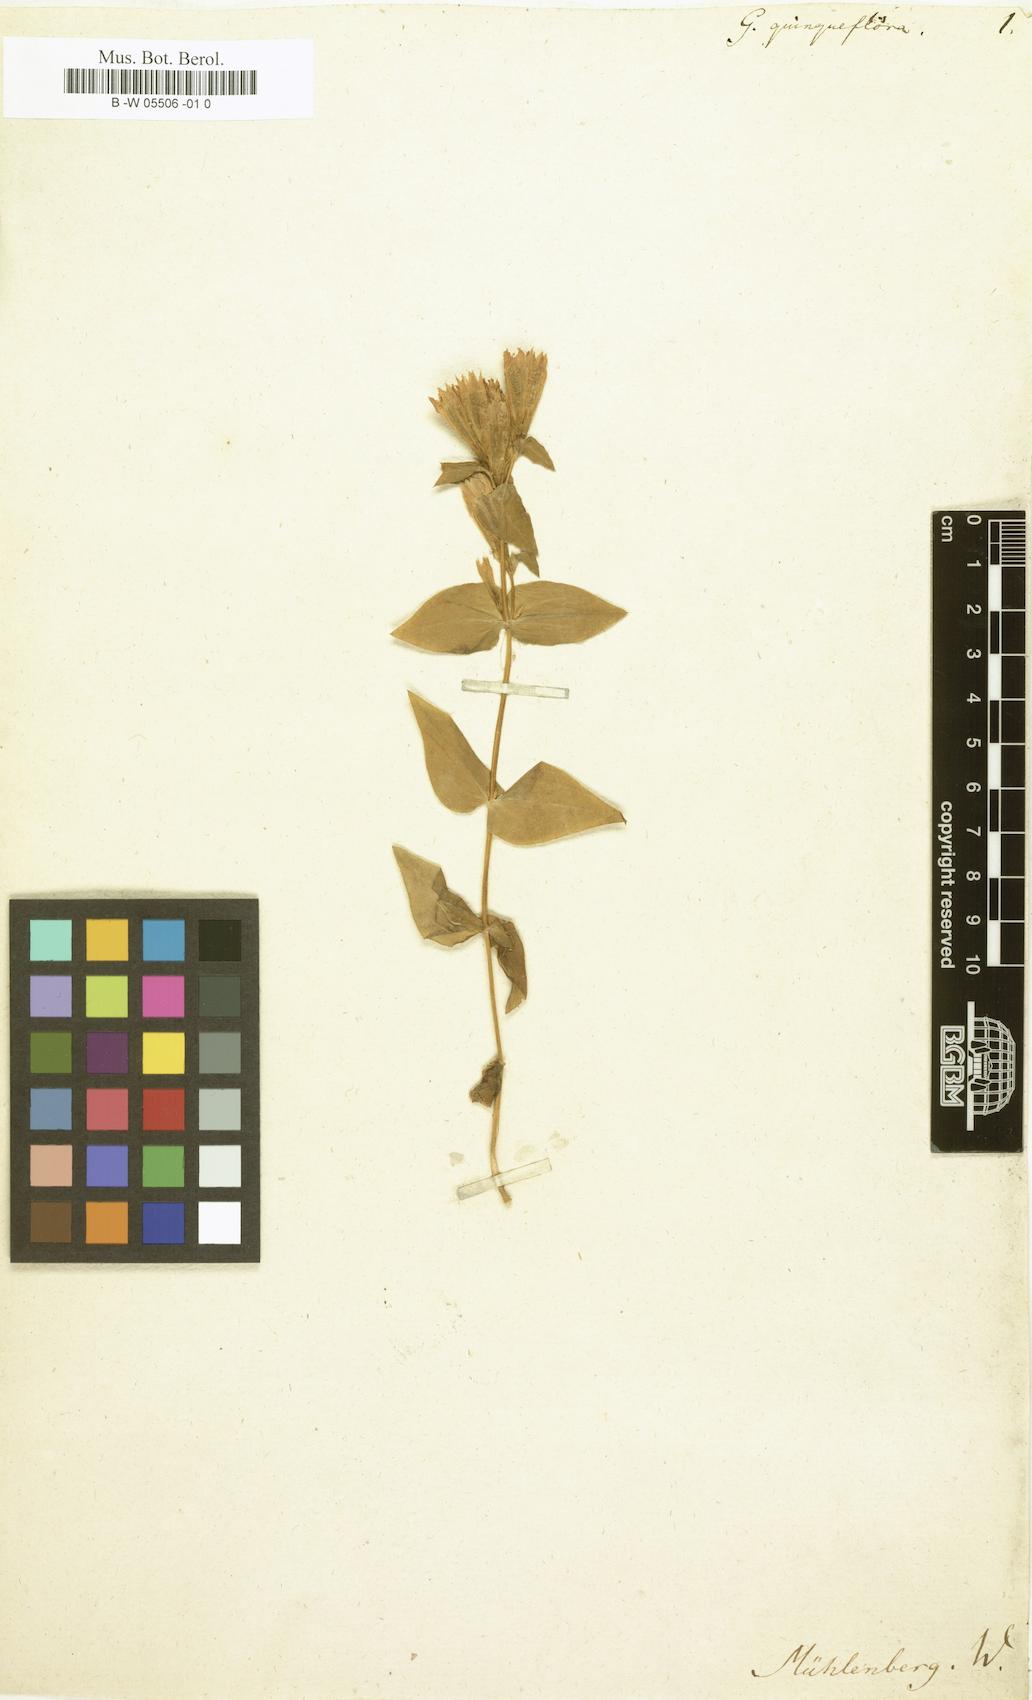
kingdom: Plantae
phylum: Tracheophyta
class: Magnoliopsida
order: Gentianales
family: Gentianaceae
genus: Gentiana
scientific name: Gentiana quinqueflora
